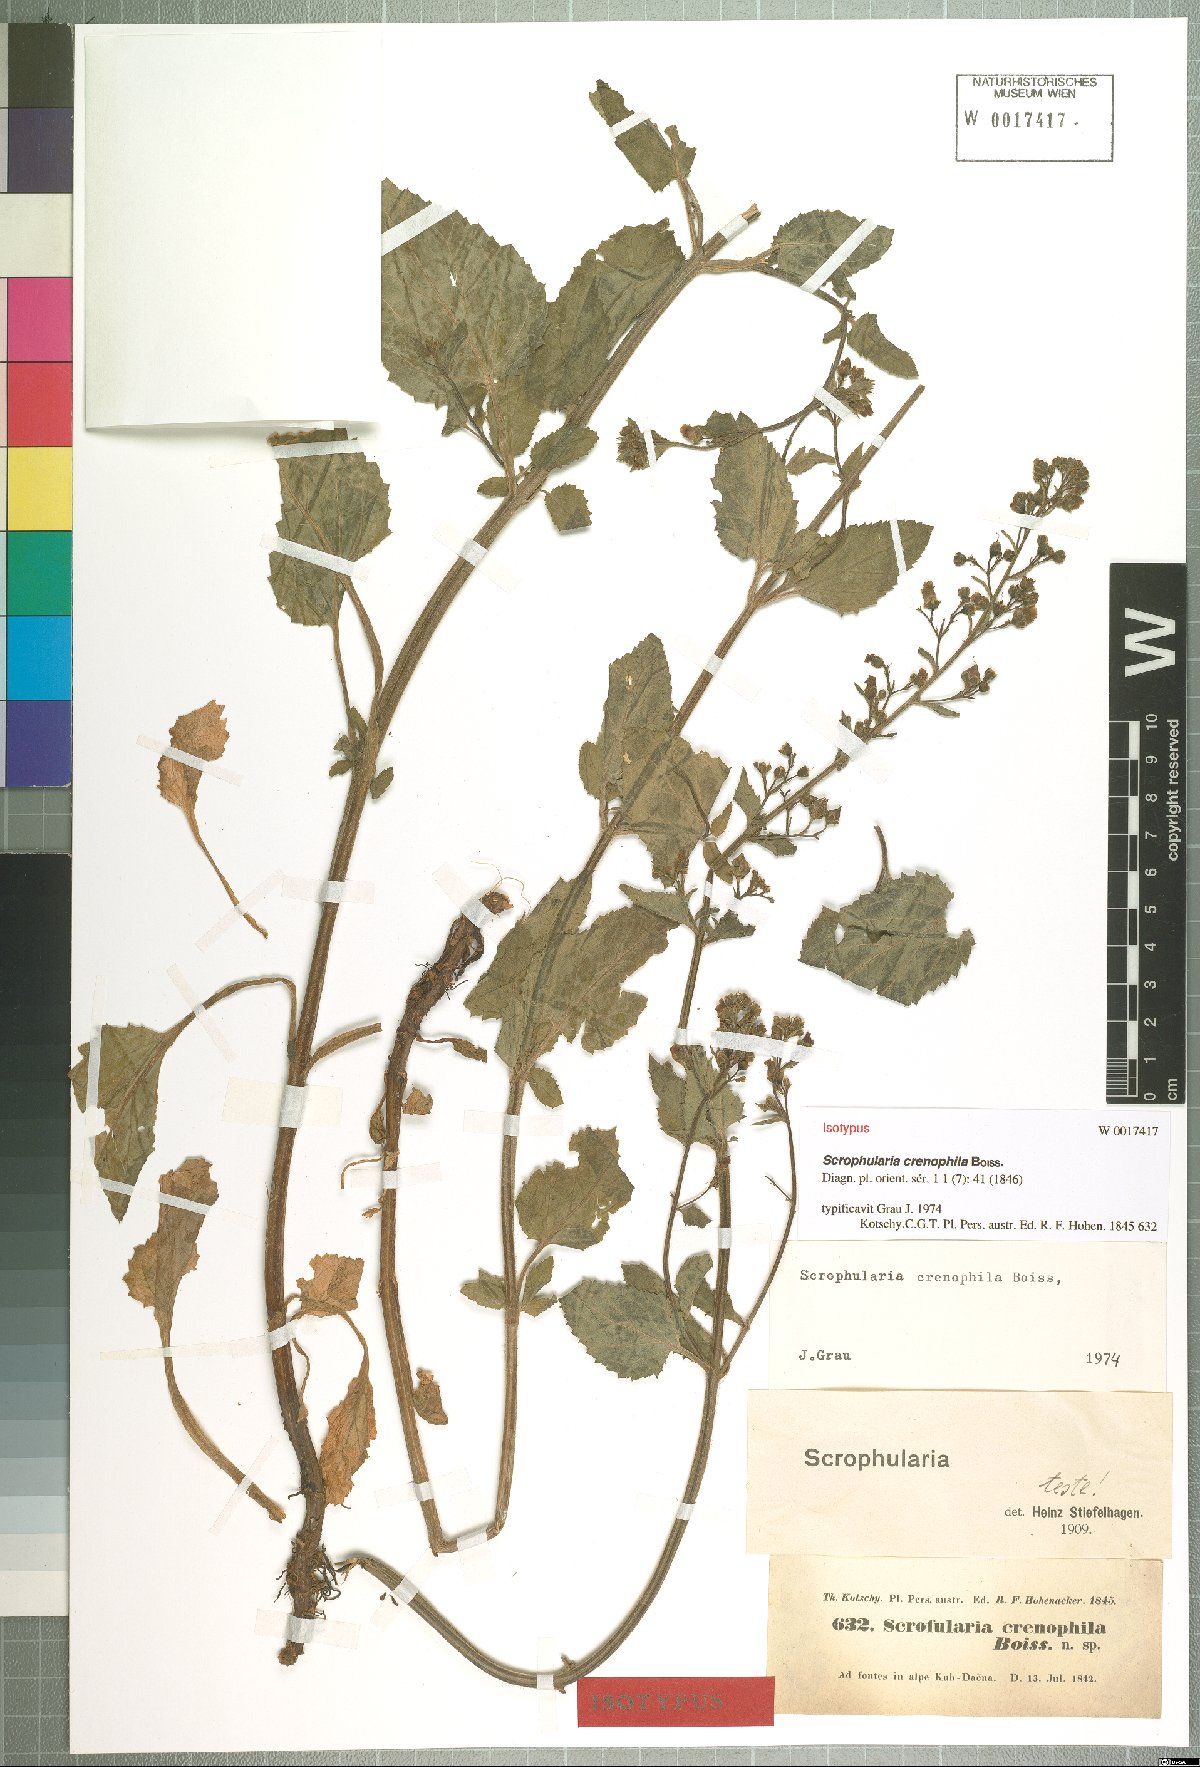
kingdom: Plantae
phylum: Tracheophyta
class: Magnoliopsida
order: Lamiales
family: Scrophulariaceae
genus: Scrophularia
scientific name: Scrophularia crenophila
